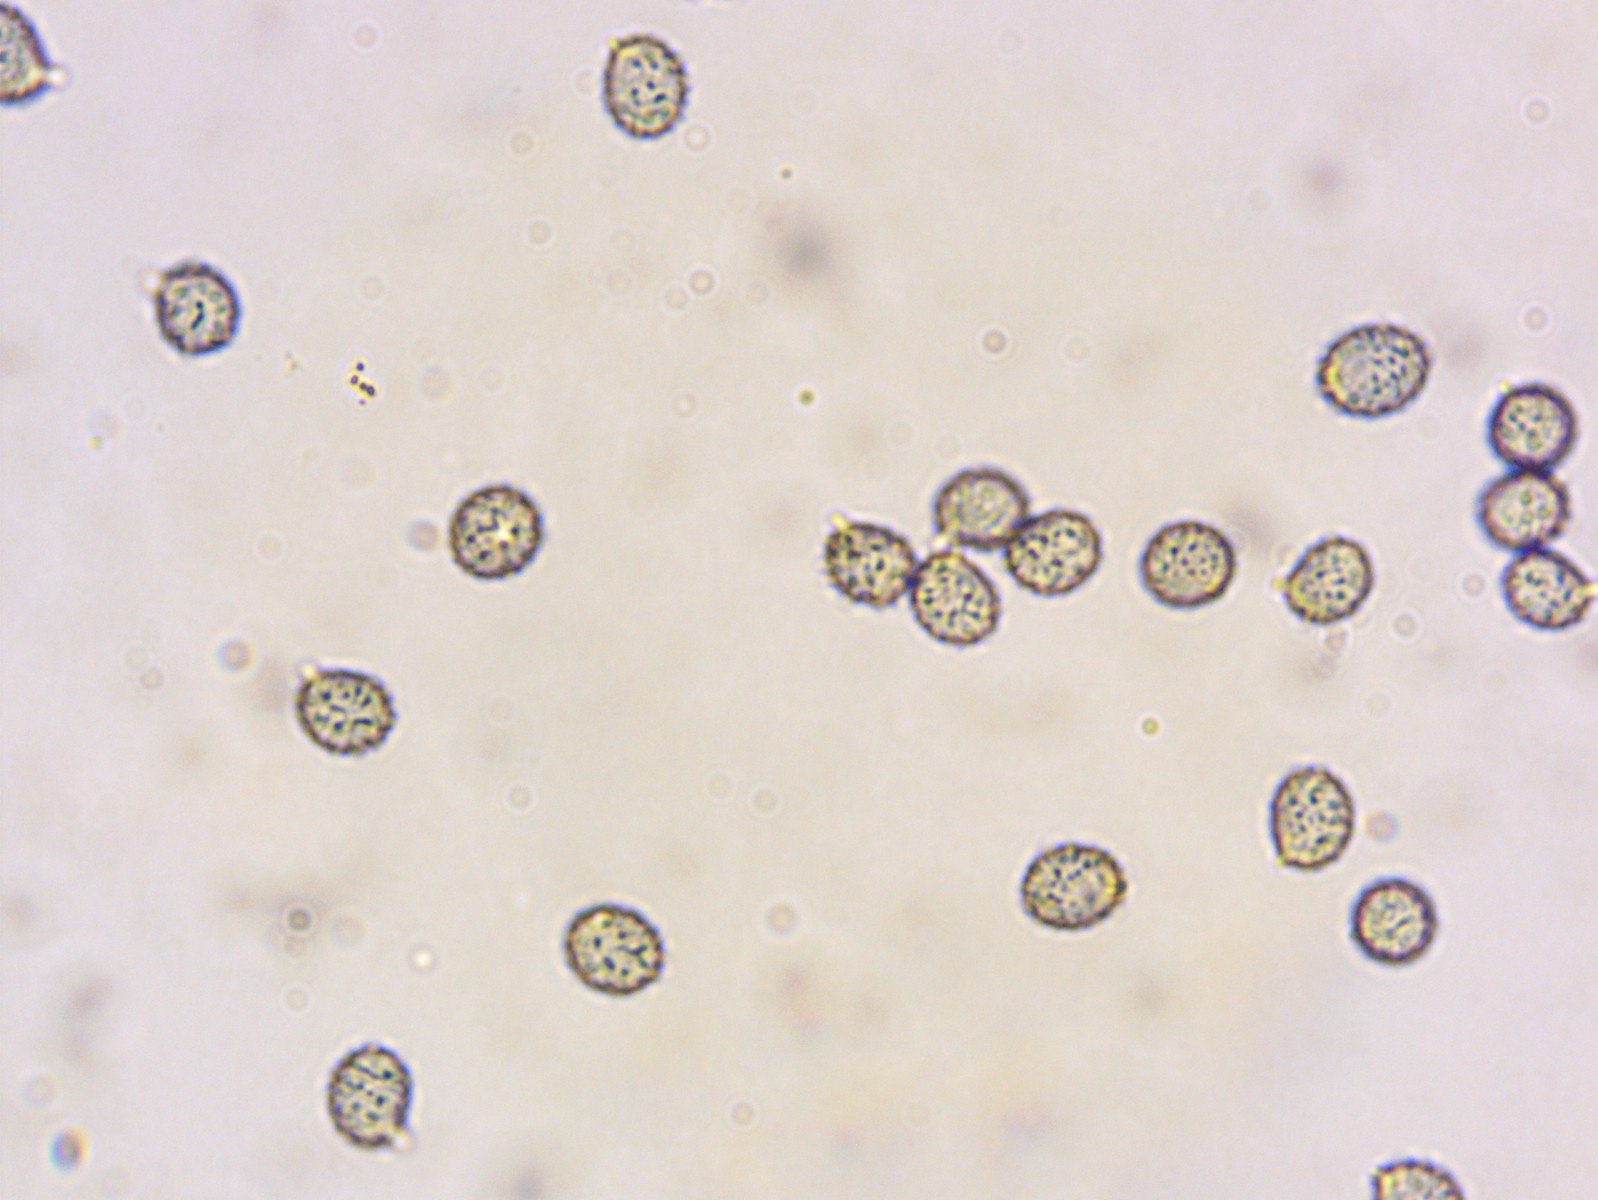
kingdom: Fungi
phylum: Basidiomycota
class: Agaricomycetes
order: Russulales
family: Russulaceae
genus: Russula
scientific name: Russula grisea
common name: grålig skørhat
